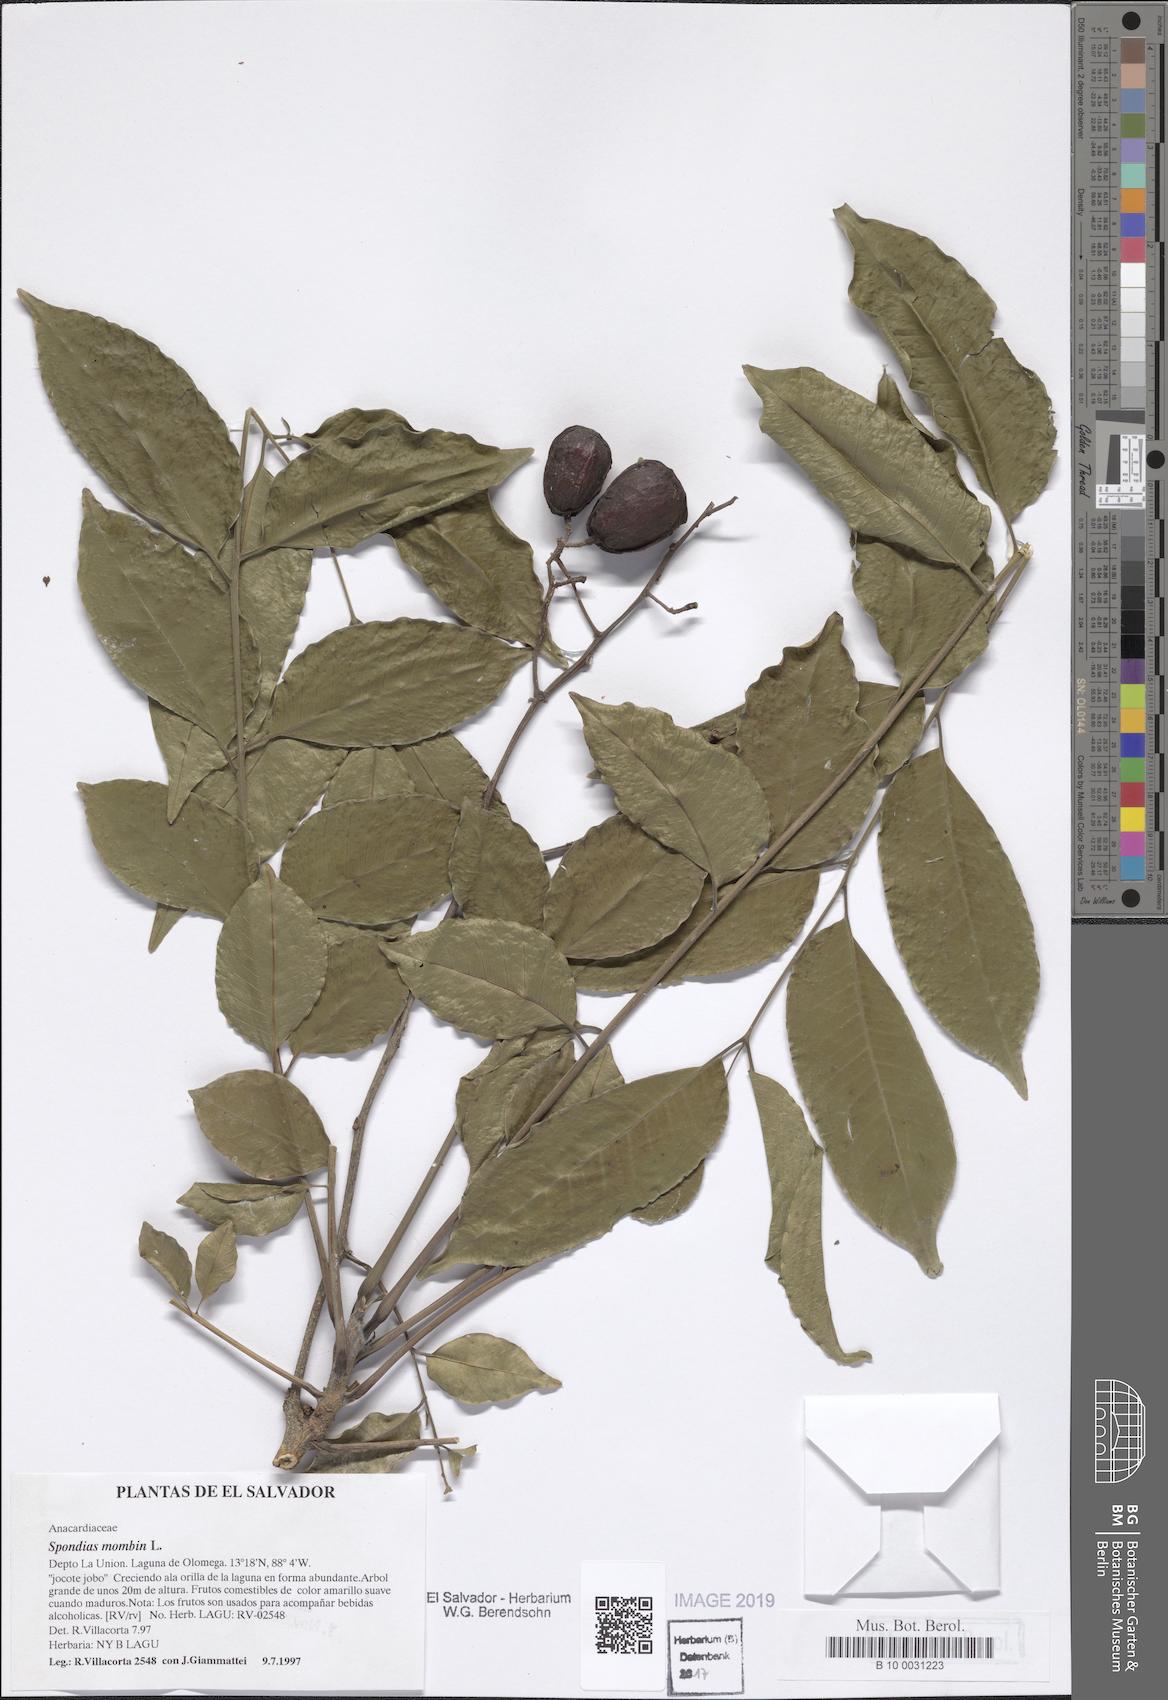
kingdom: Plantae
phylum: Tracheophyta
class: Magnoliopsida
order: Sapindales
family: Anacardiaceae
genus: Spondias
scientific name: Spondias mombin
